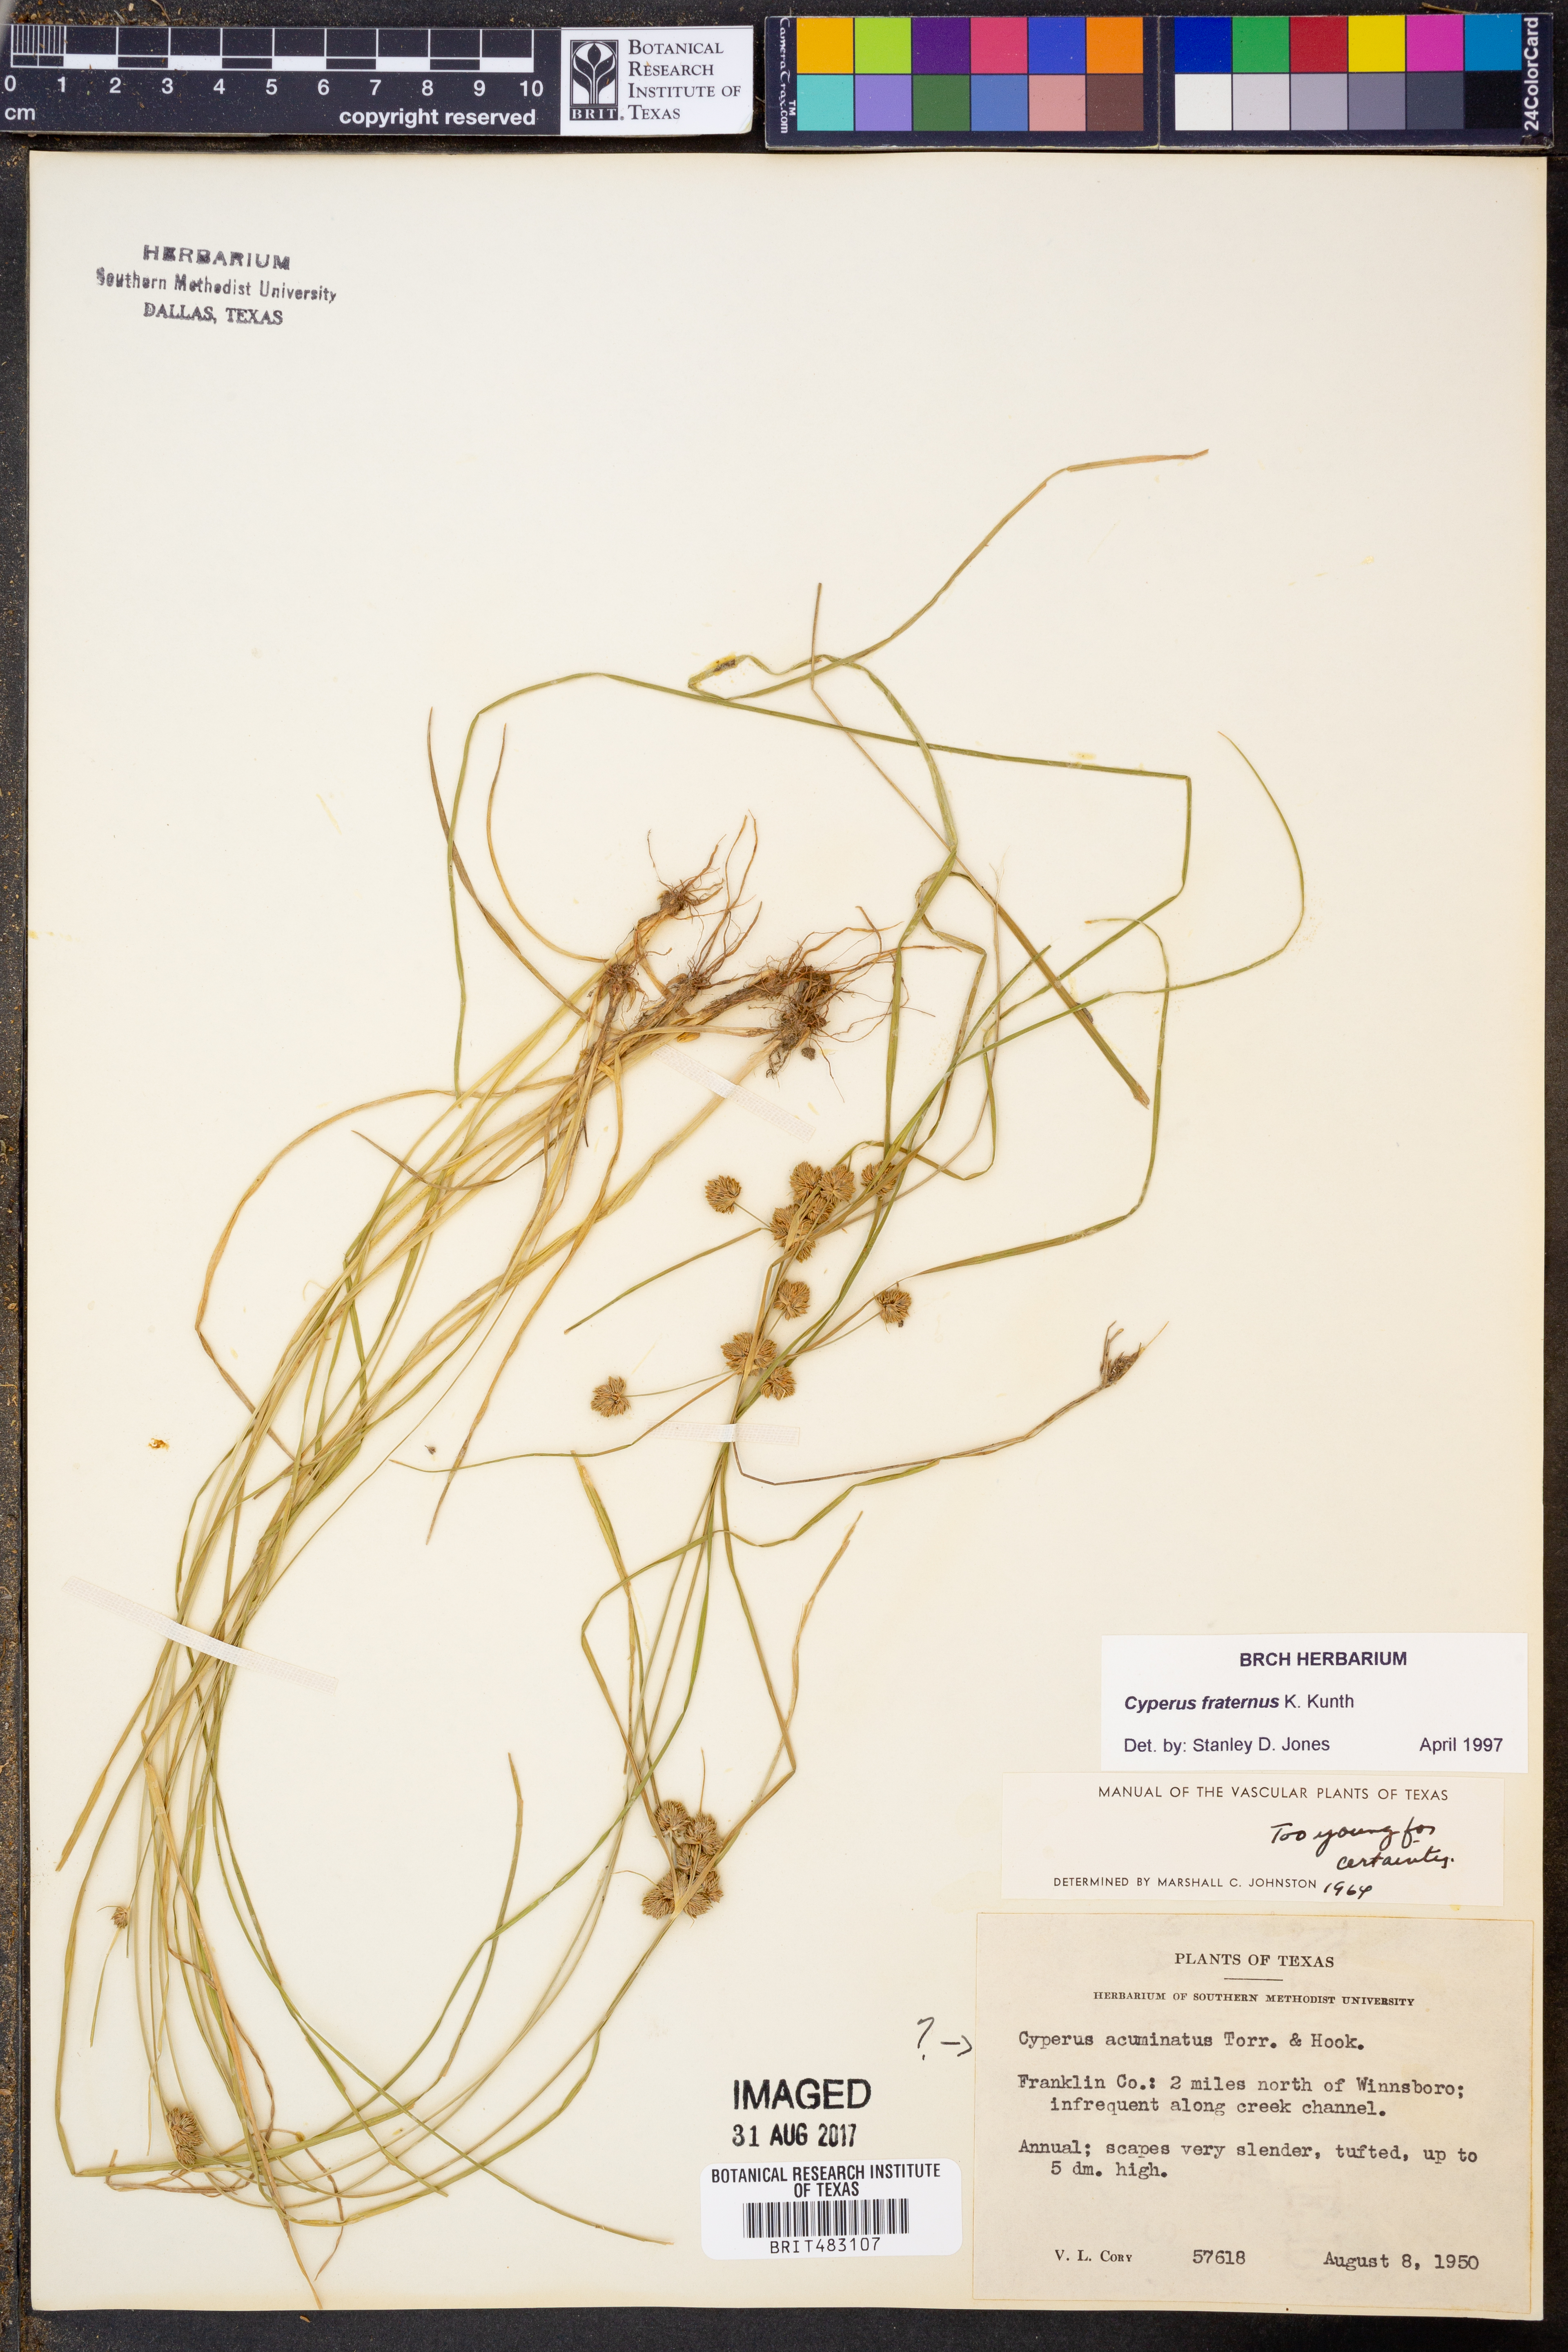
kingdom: Plantae
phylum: Tracheophyta
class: Liliopsida
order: Poales
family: Cyperaceae
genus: Cyperus
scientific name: Cyperus fraternus
